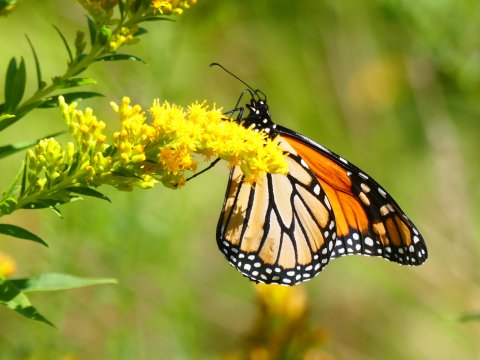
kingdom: Animalia
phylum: Arthropoda
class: Insecta
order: Lepidoptera
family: Nymphalidae
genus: Danaus
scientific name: Danaus plexippus
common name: Monarch
